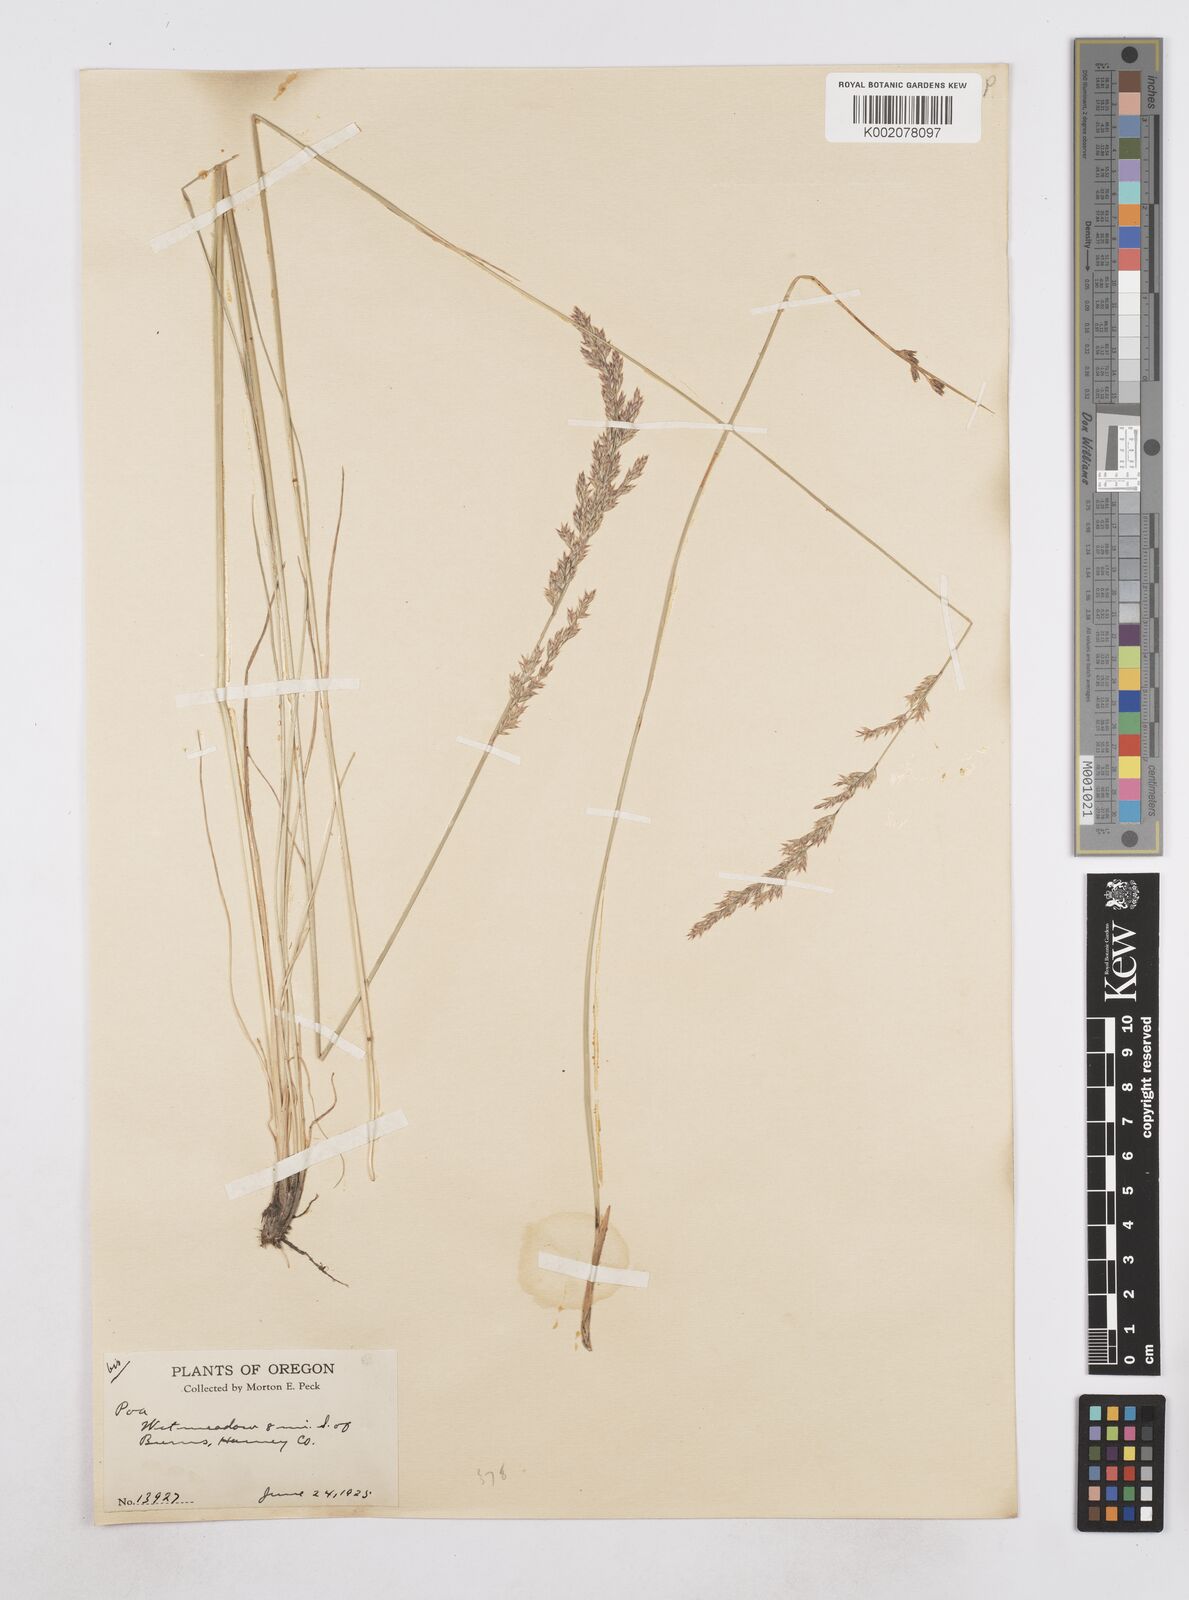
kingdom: Plantae
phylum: Tracheophyta
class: Liliopsida
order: Poales
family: Poaceae
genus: Poa
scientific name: Poa
